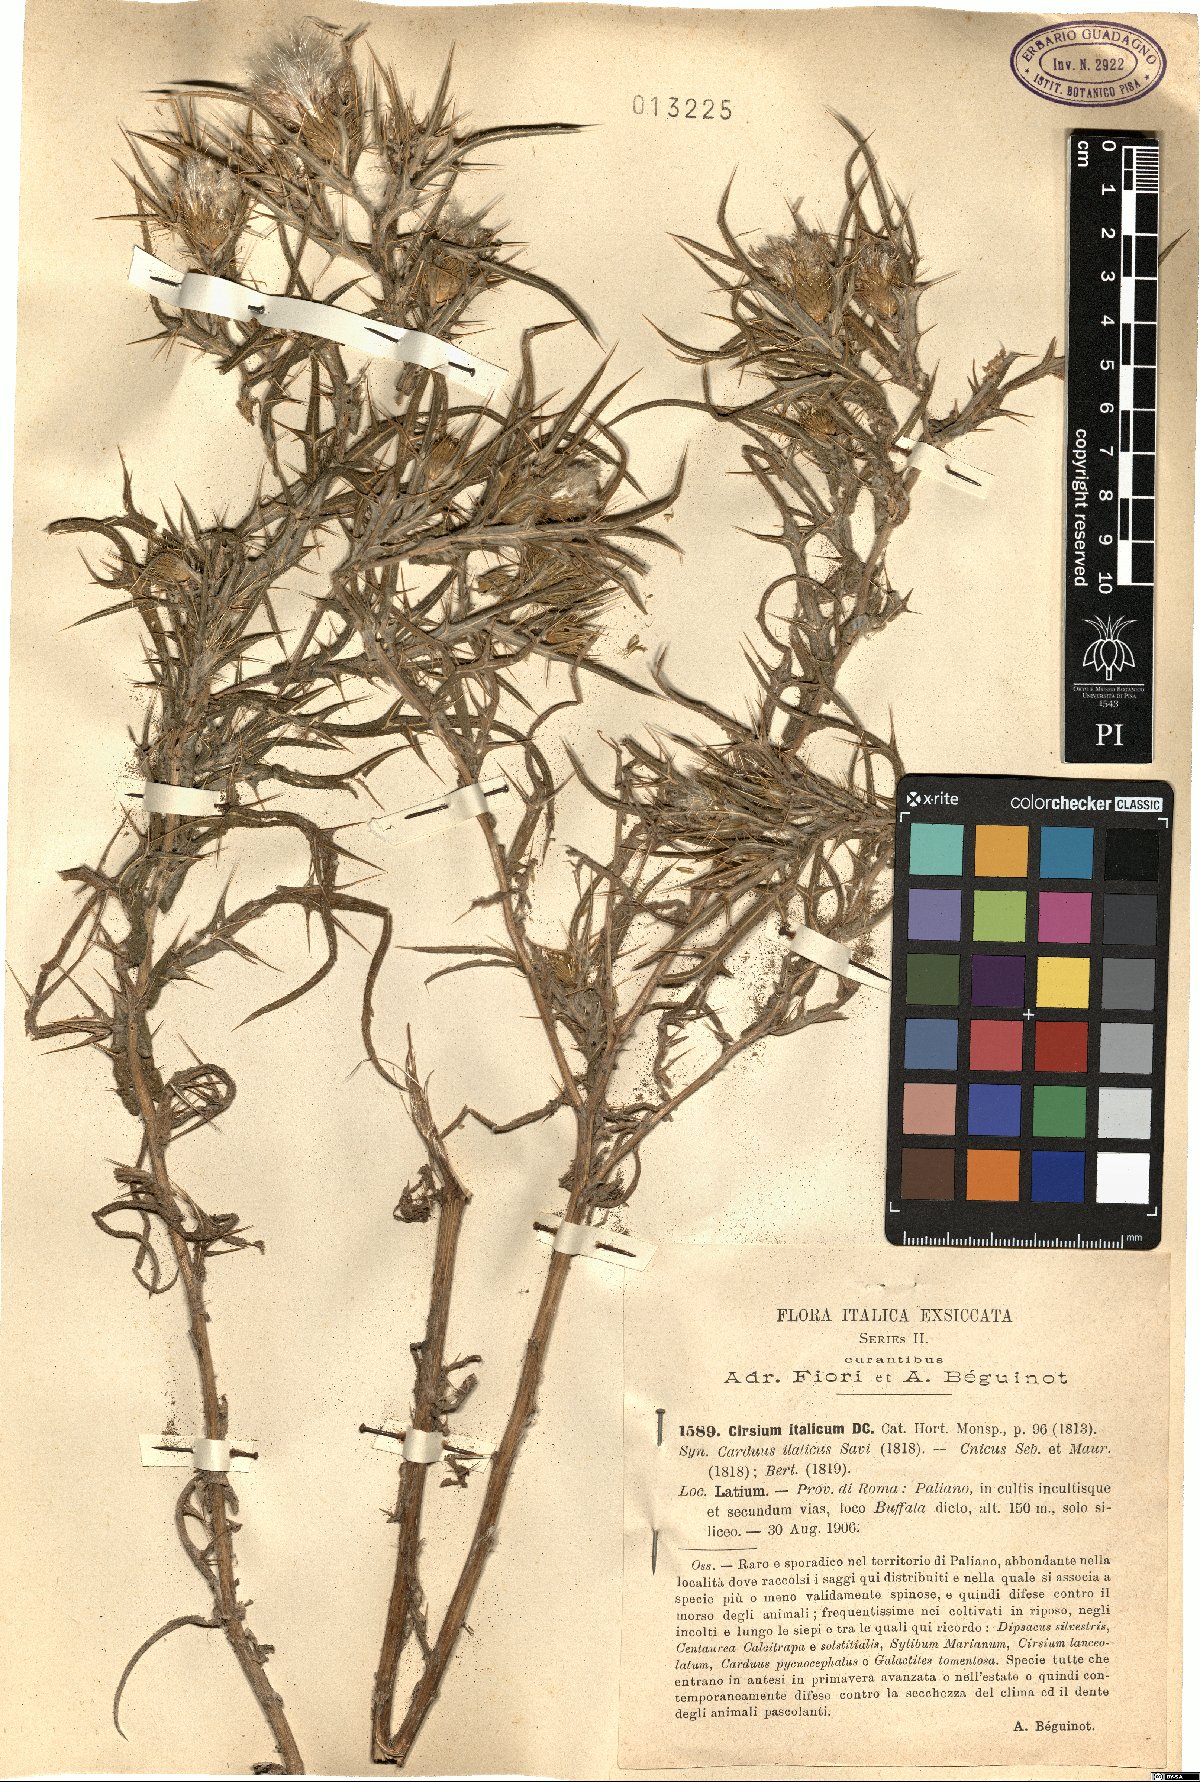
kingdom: Plantae
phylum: Tracheophyta
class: Magnoliopsida
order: Asterales
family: Asteraceae
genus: Epitrachys
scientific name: Epitrachys italica
